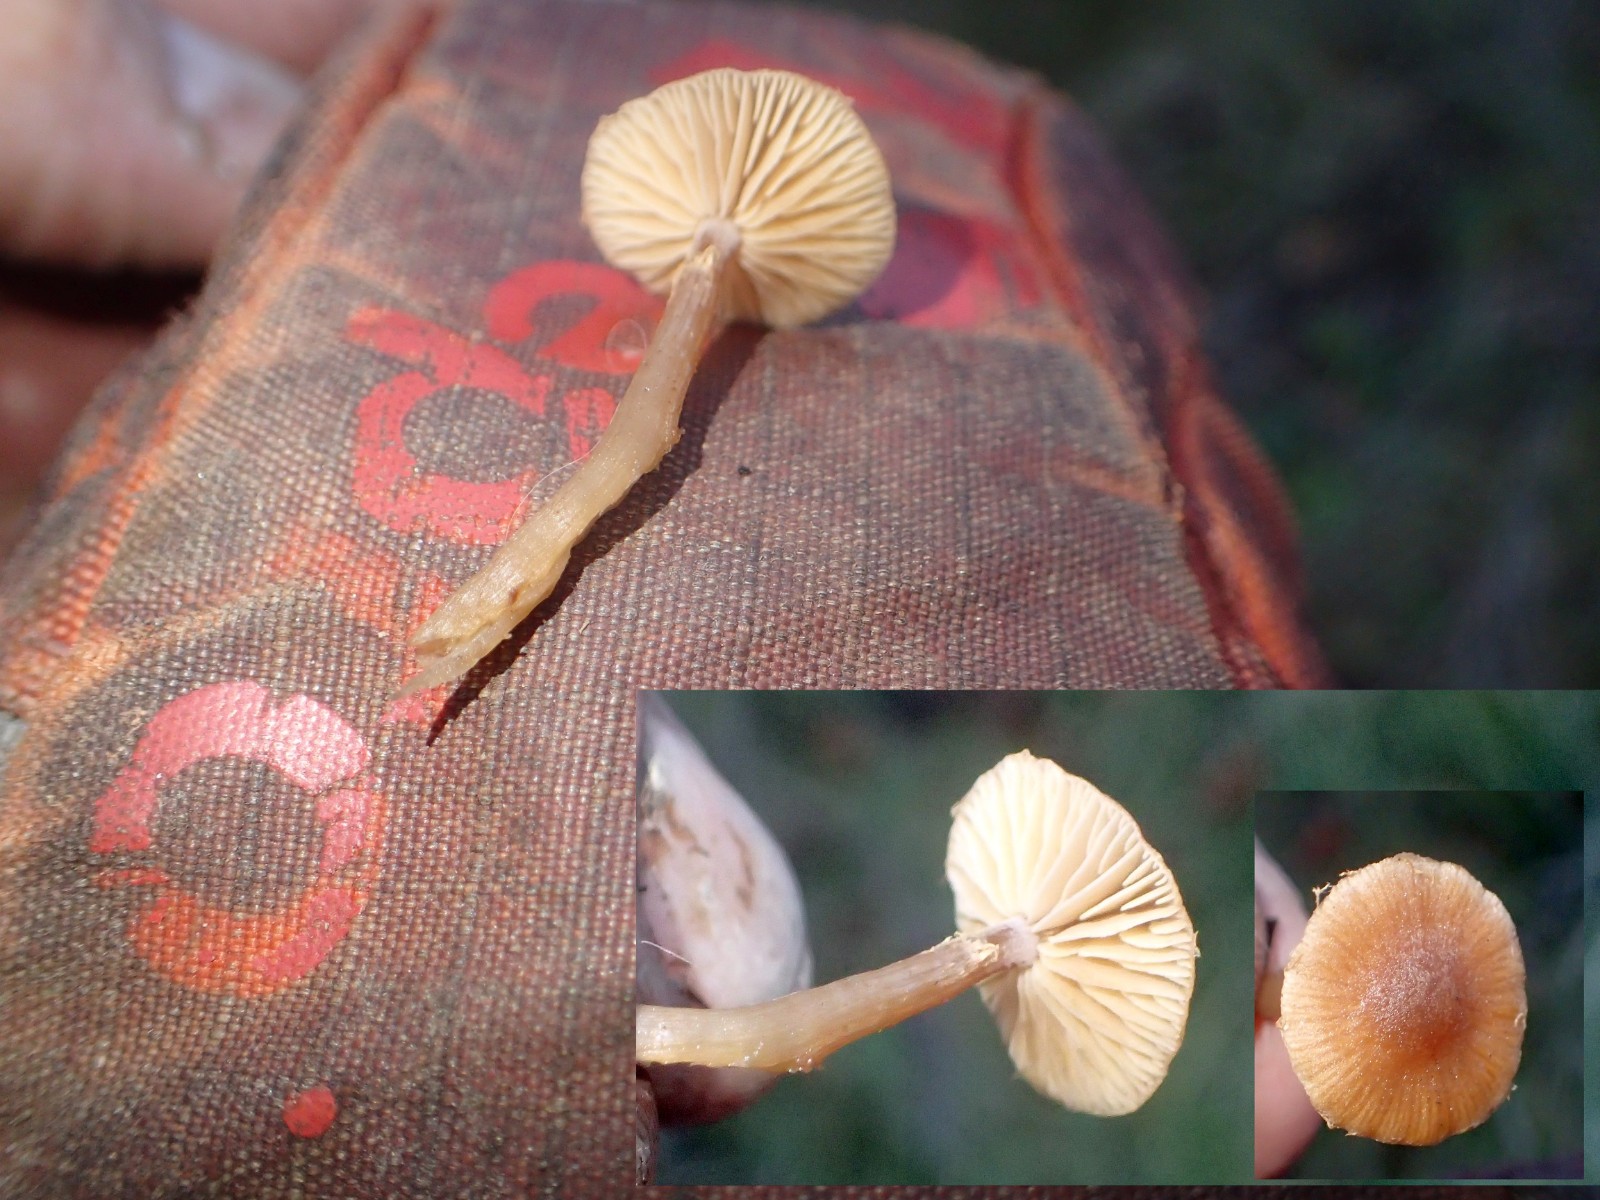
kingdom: Fungi
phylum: Basidiomycota
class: Agaricomycetes
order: Agaricales
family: Tubariaceae
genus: Tubaria
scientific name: Tubaria furfuracea
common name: kliddet fnughat
